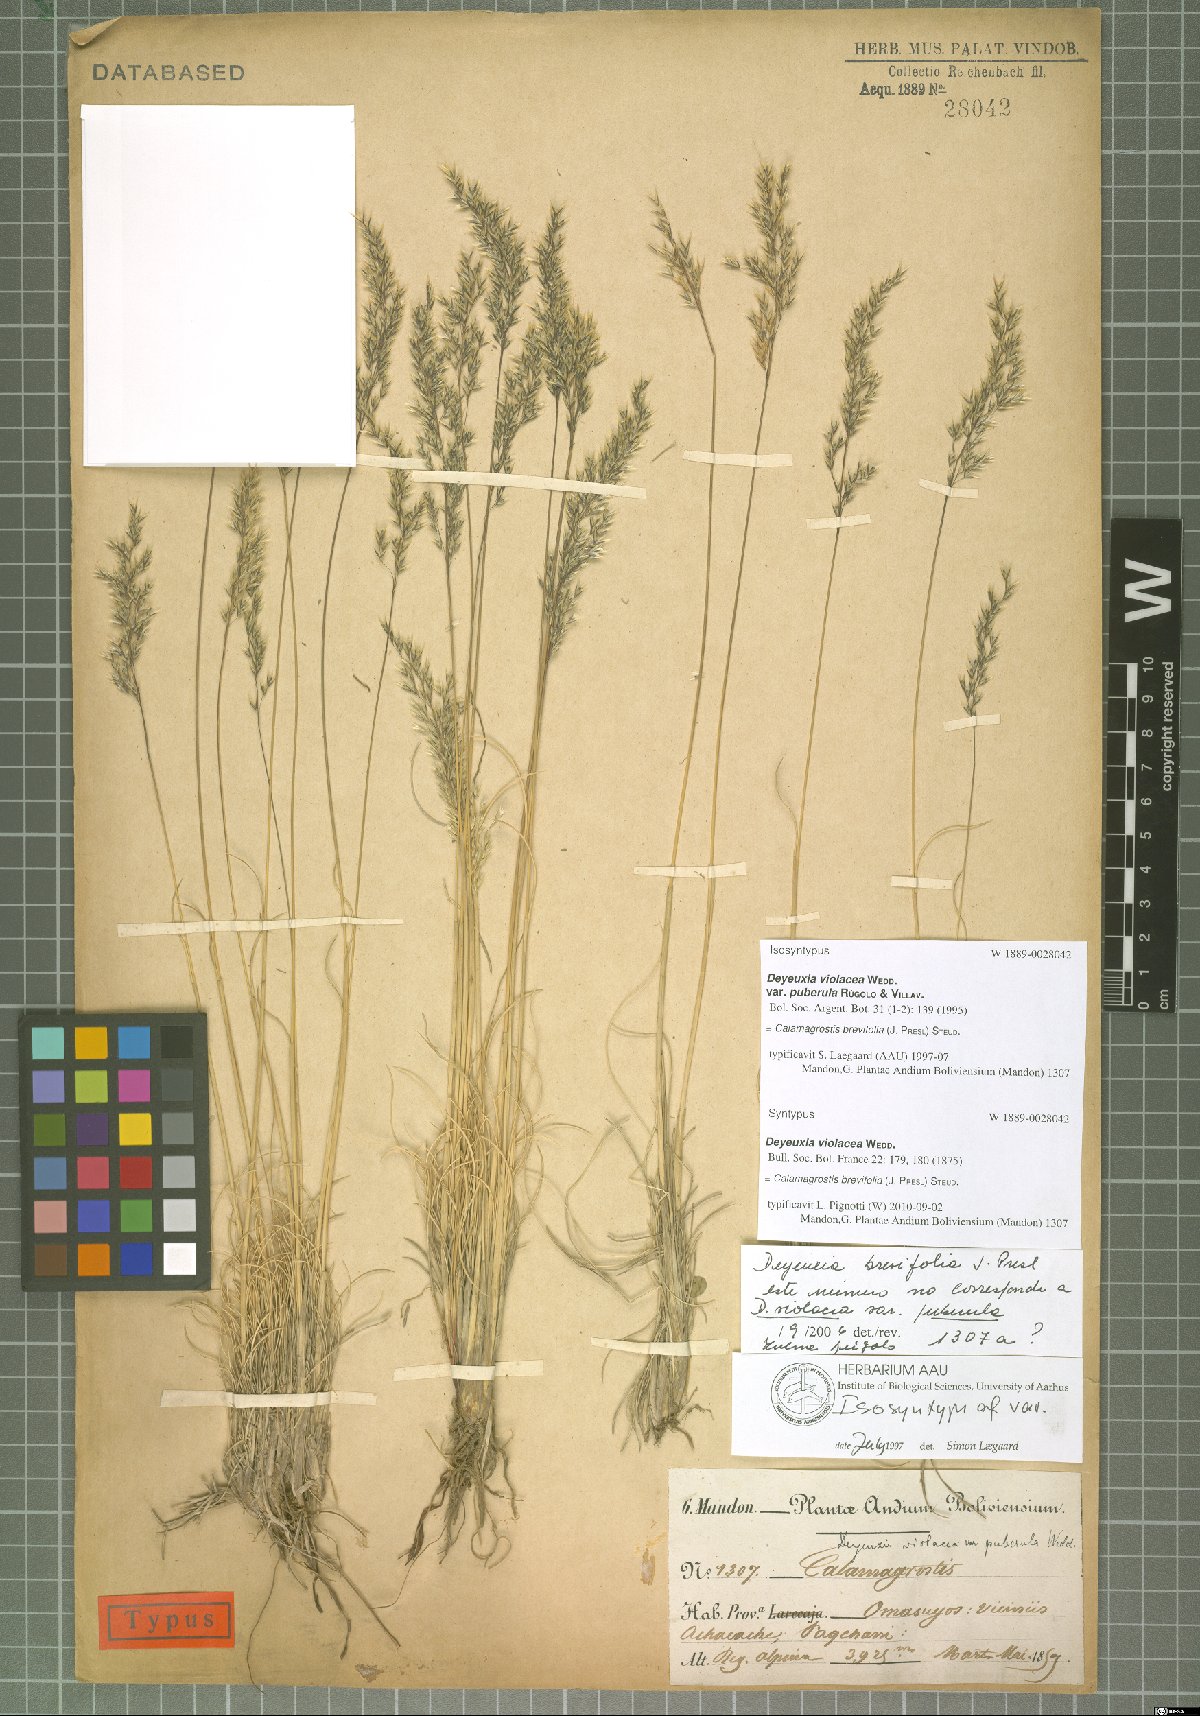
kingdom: Plantae
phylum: Tracheophyta
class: Liliopsida
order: Poales
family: Poaceae
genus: Cinnagrostis
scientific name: Cinnagrostis brevifolia
